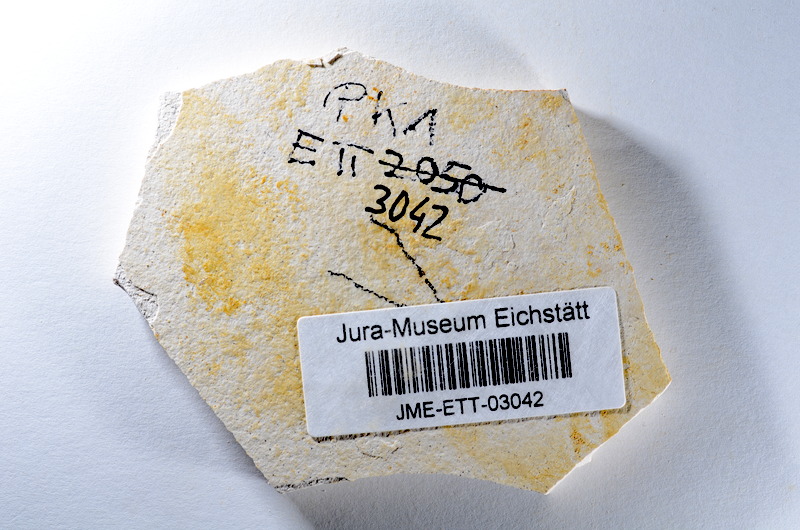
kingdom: Animalia
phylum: Chordata
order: Salmoniformes
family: Orthogonikleithridae
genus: Orthogonikleithrus
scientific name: Orthogonikleithrus hoelli
